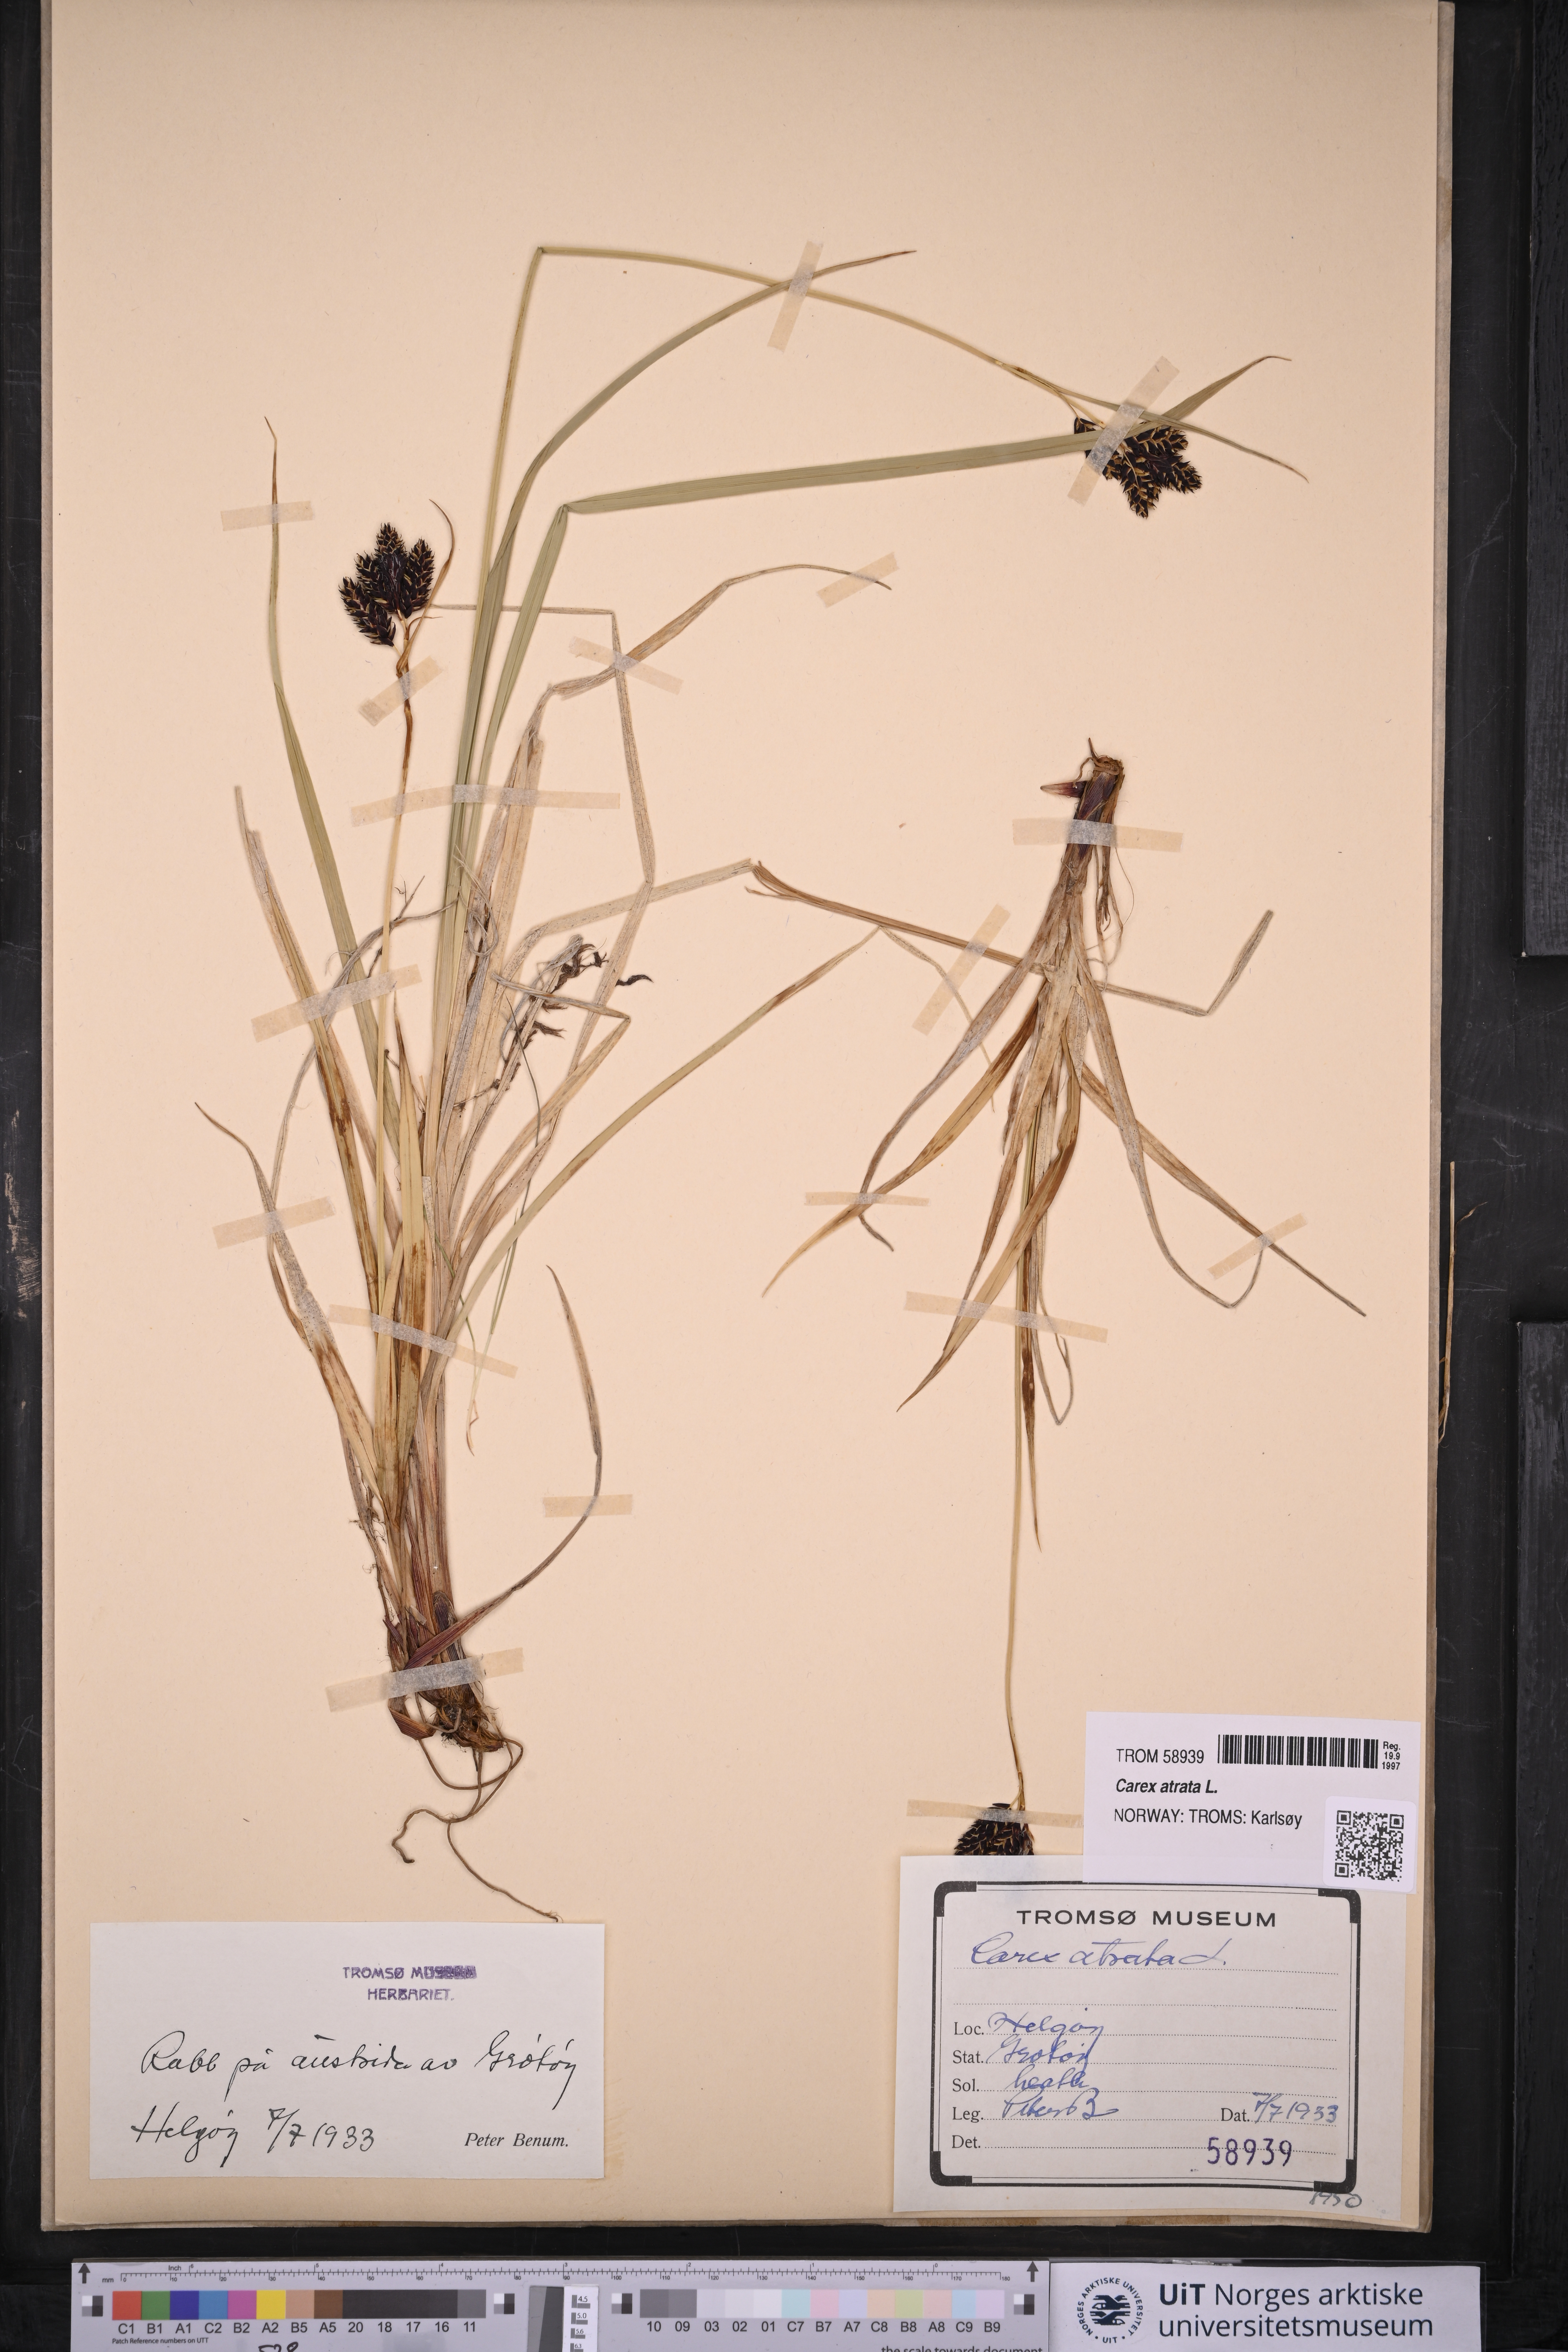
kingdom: Plantae
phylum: Tracheophyta
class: Liliopsida
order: Poales
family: Cyperaceae
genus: Carex
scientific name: Carex atrata
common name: Black alpine sedge
